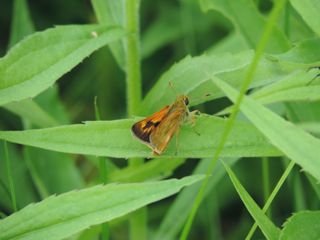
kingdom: Animalia
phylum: Arthropoda
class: Insecta
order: Lepidoptera
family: Hesperiidae
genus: Polites
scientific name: Polites
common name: Long Dash Skipper
